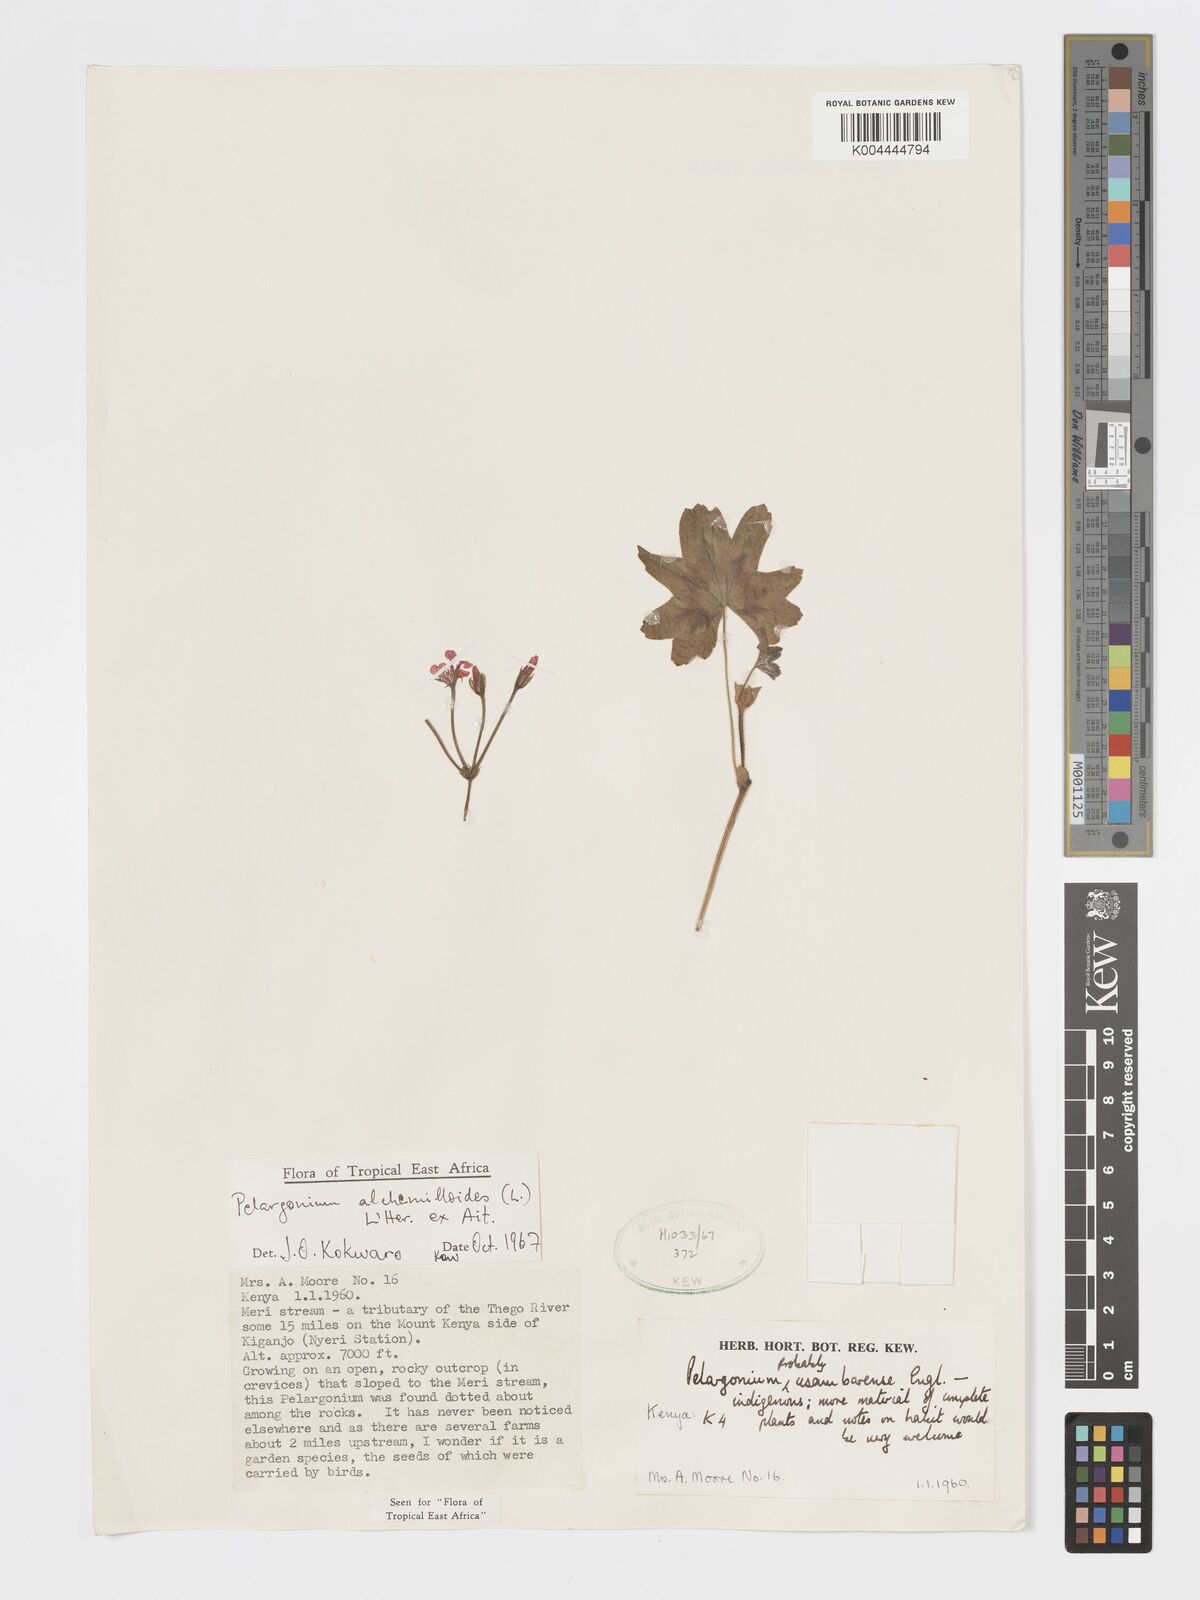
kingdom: Plantae
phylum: Tracheophyta
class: Magnoliopsida
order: Geraniales
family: Geraniaceae
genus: Pelargonium
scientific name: Pelargonium alchemilloides
